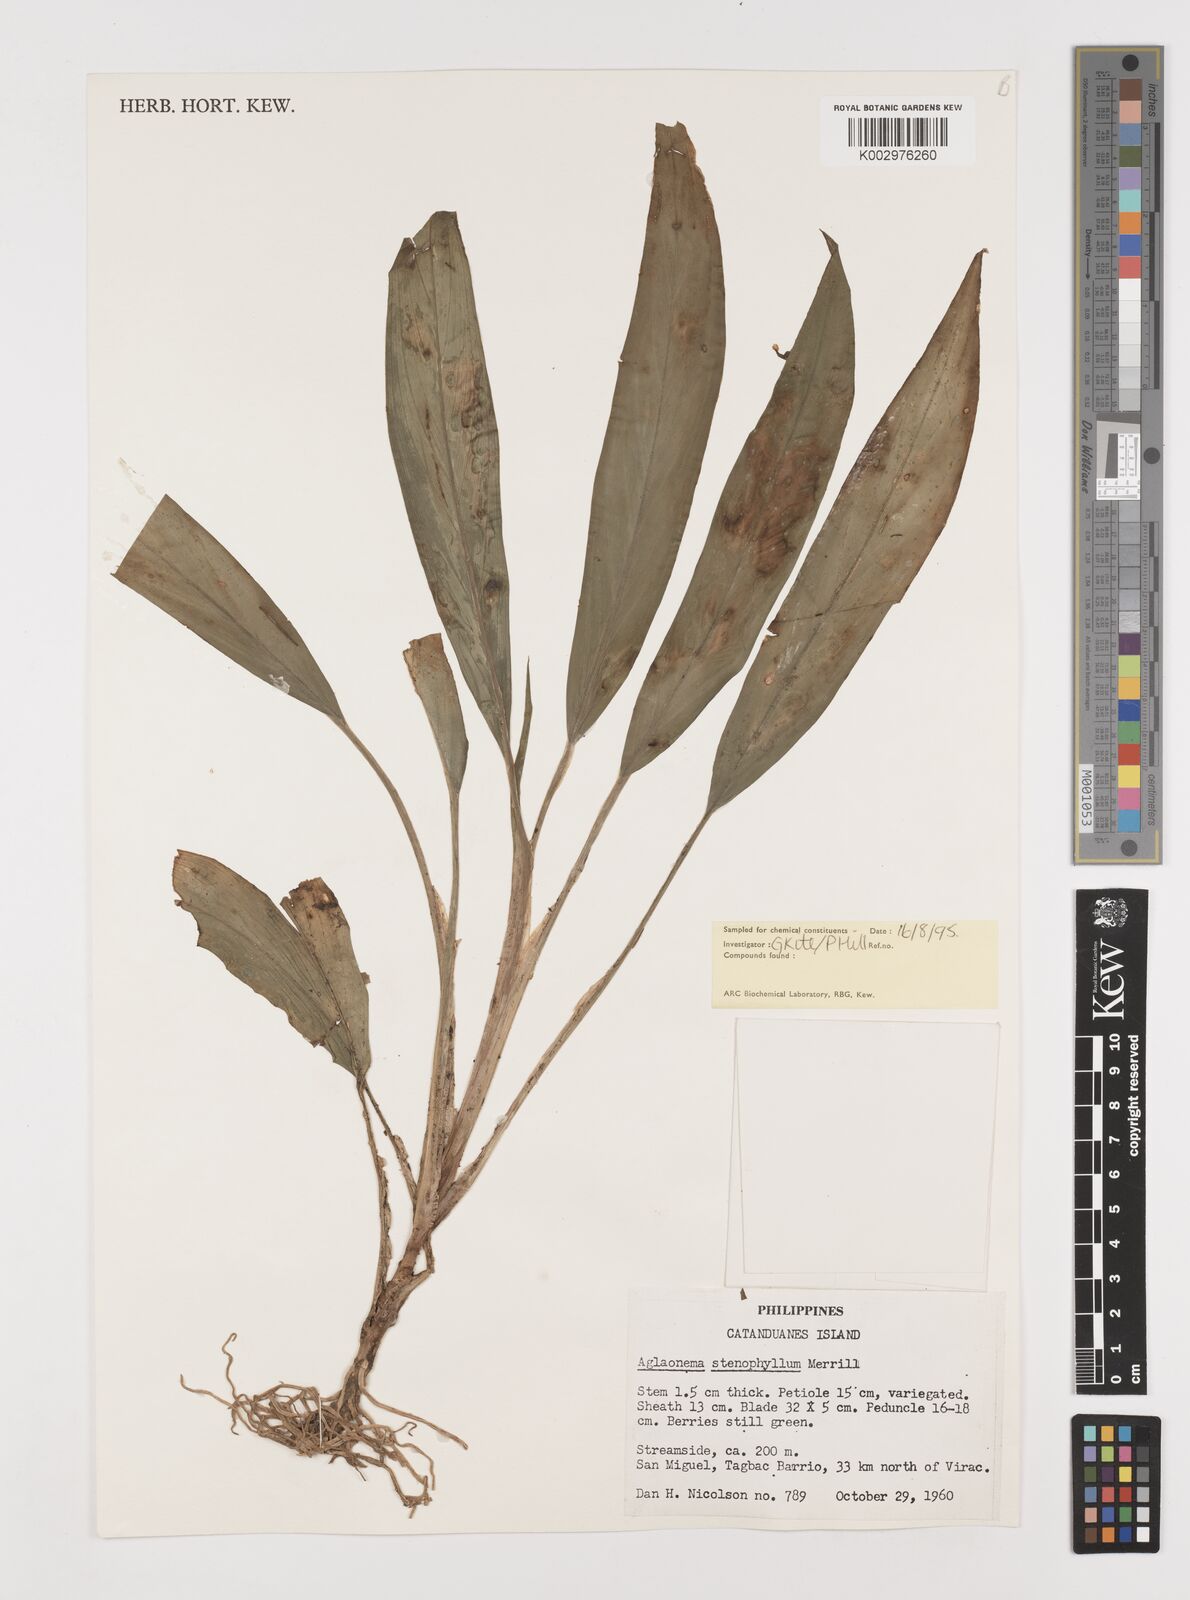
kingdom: Plantae
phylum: Tracheophyta
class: Liliopsida
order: Alismatales
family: Araceae
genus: Aglaonema
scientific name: Aglaonema philippinense
